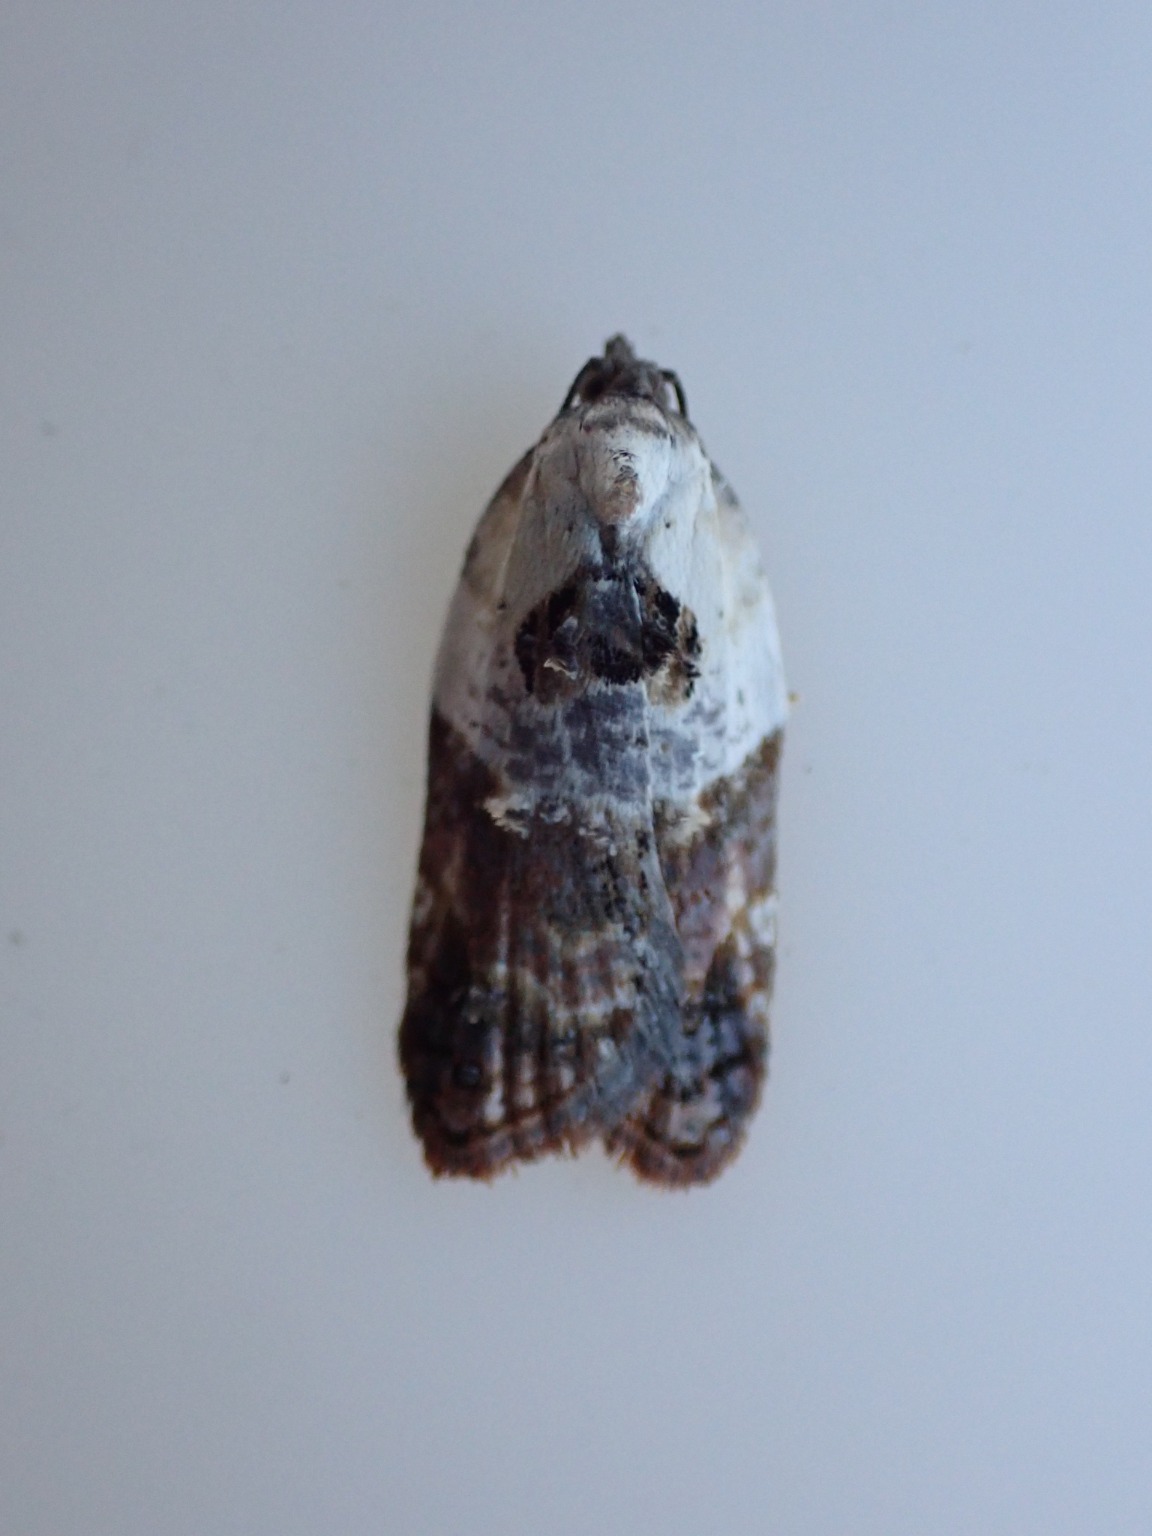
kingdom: Animalia
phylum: Arthropoda
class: Insecta
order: Lepidoptera
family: Tortricidae
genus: Acleris
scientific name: Acleris variegana
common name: Hvidbroget rosenvikler
